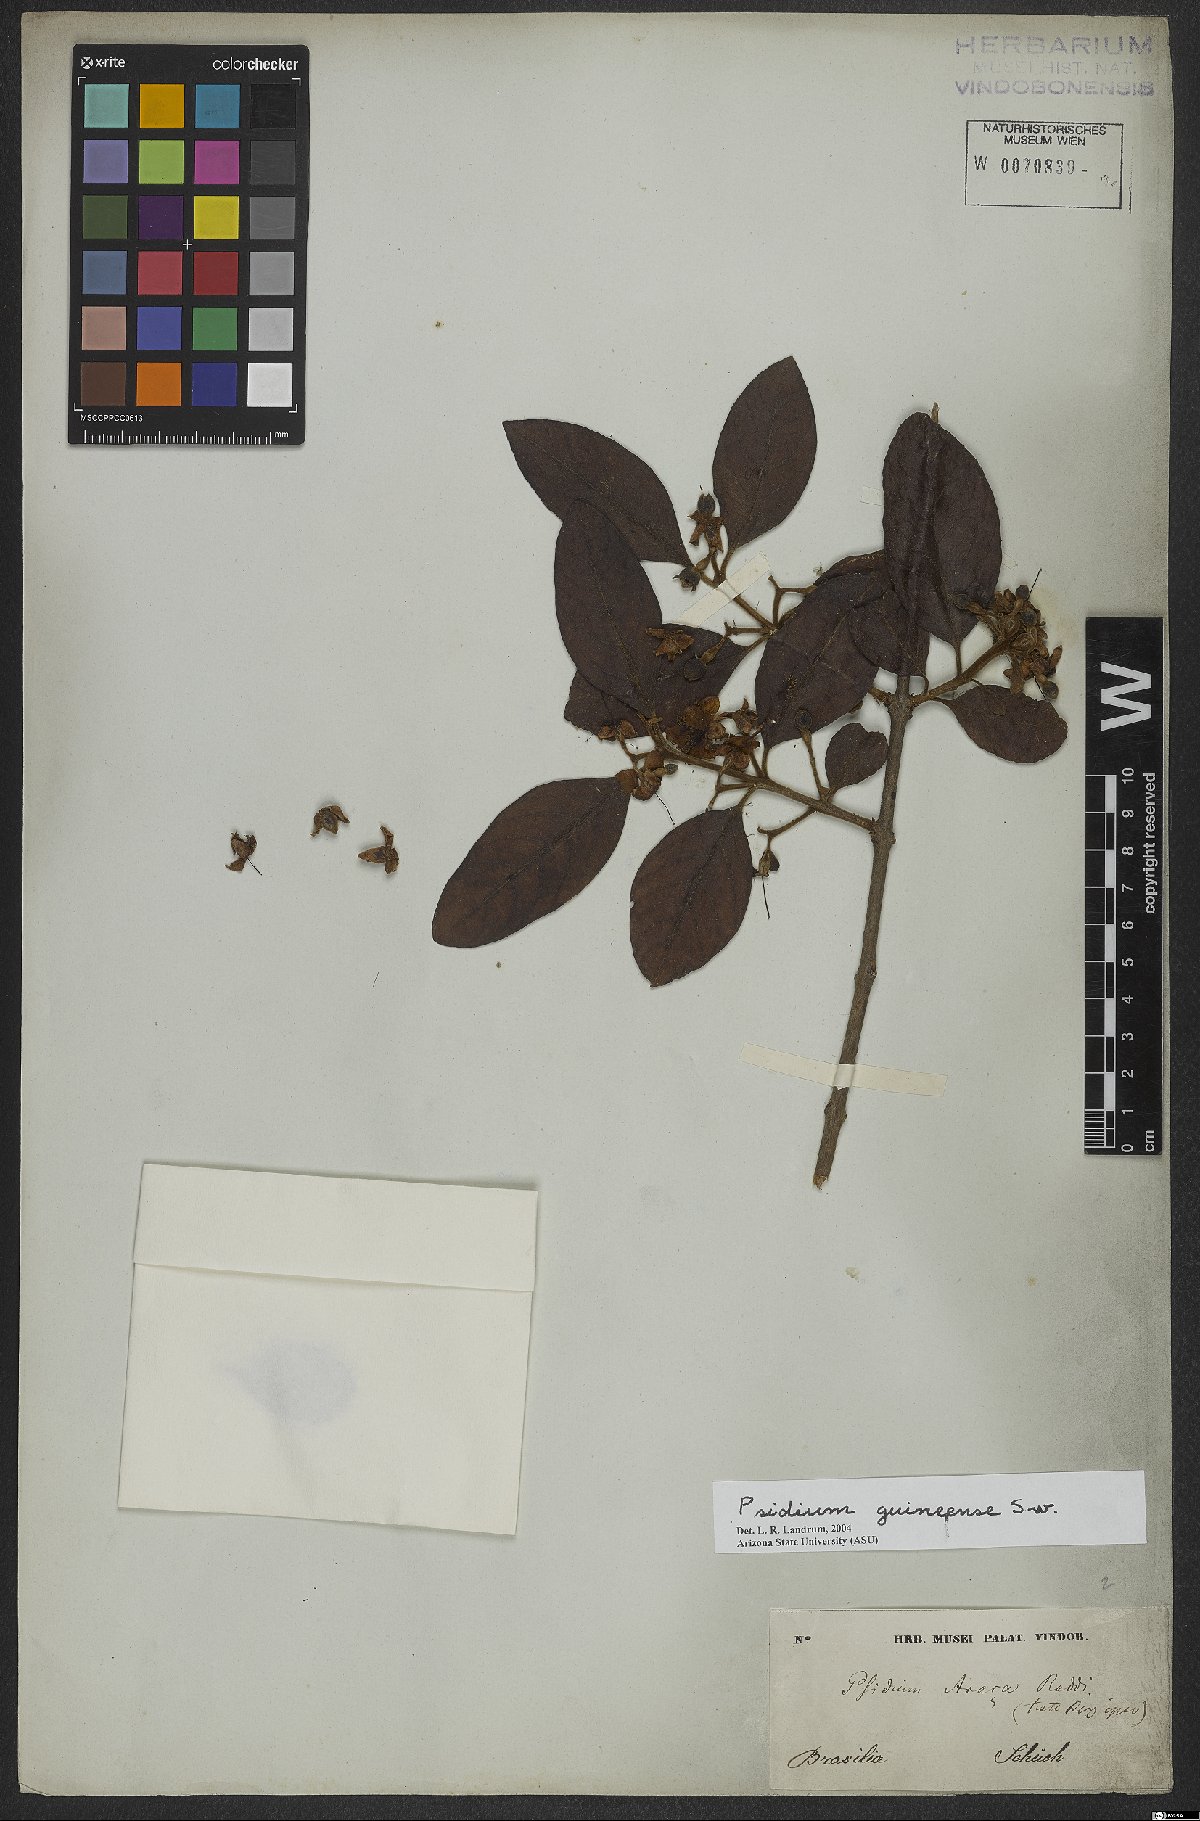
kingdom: Plantae
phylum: Tracheophyta
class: Magnoliopsida
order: Myrtales
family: Myrtaceae
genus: Psidium
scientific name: Psidium guineense
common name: Brazilian guava
